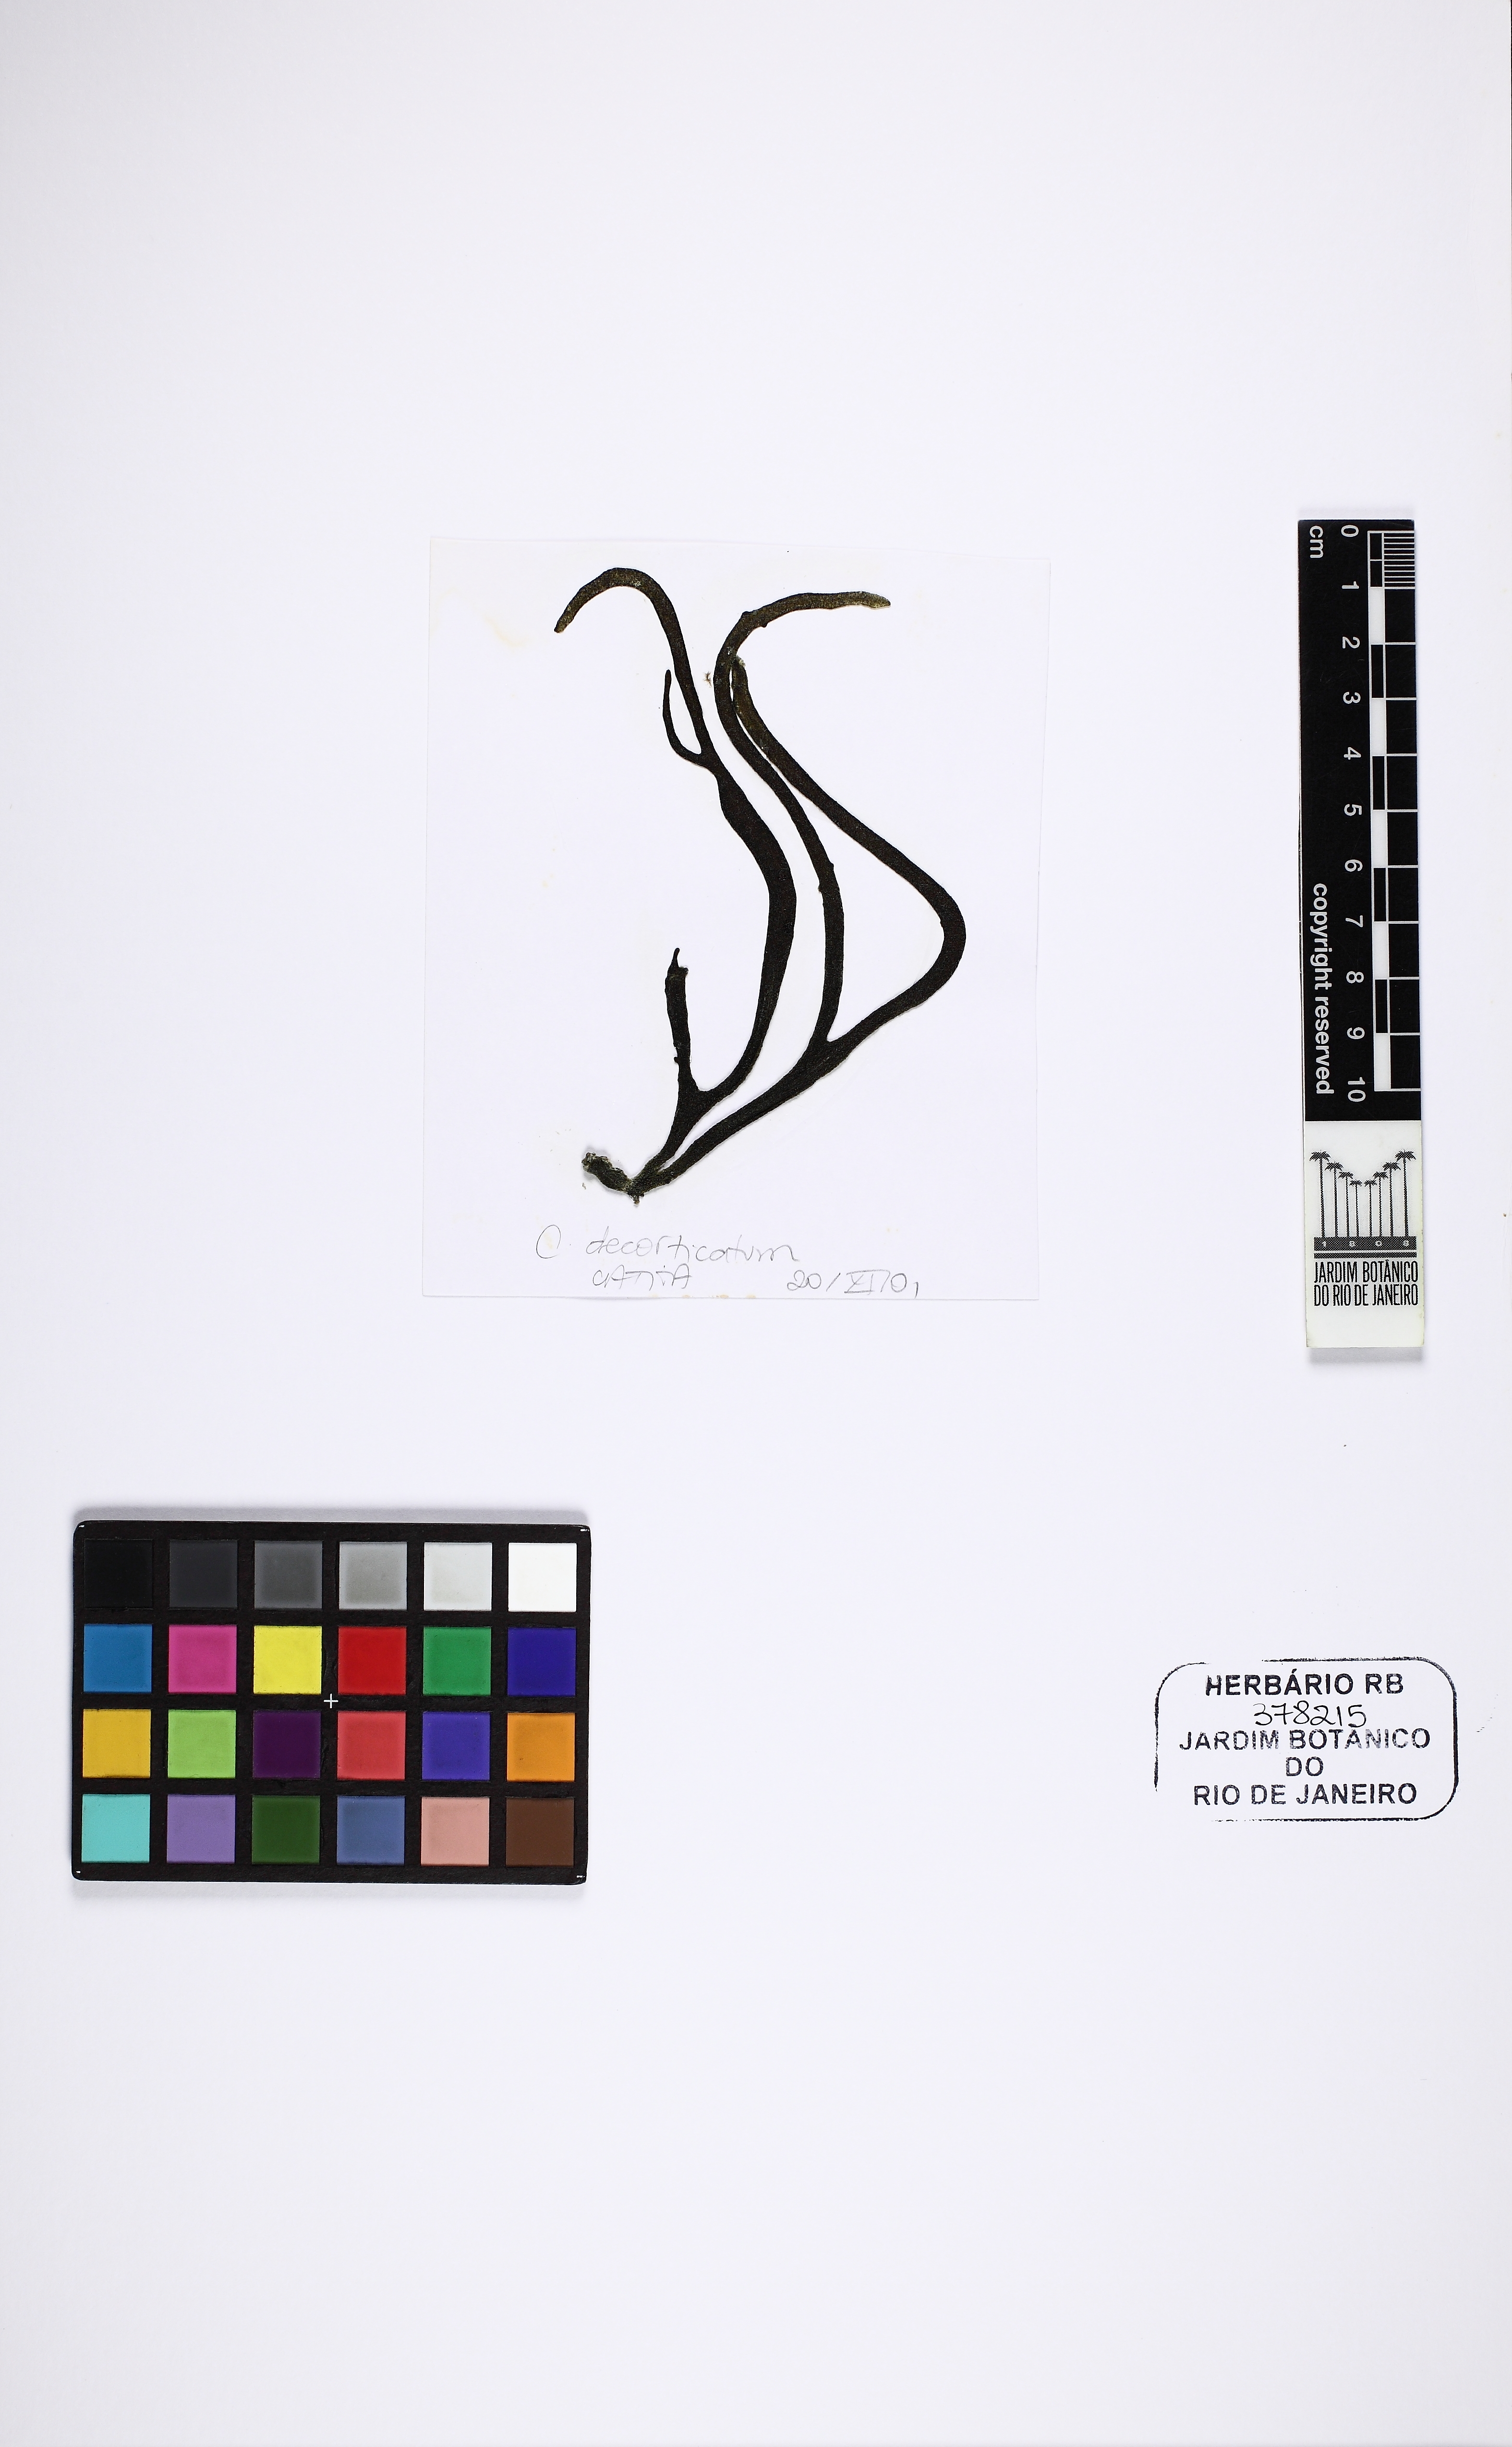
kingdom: Plantae
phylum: Chlorophyta
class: Ulvophyceae
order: Bryopsidales
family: Codiaceae
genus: Codium
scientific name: Codium decorticatum
